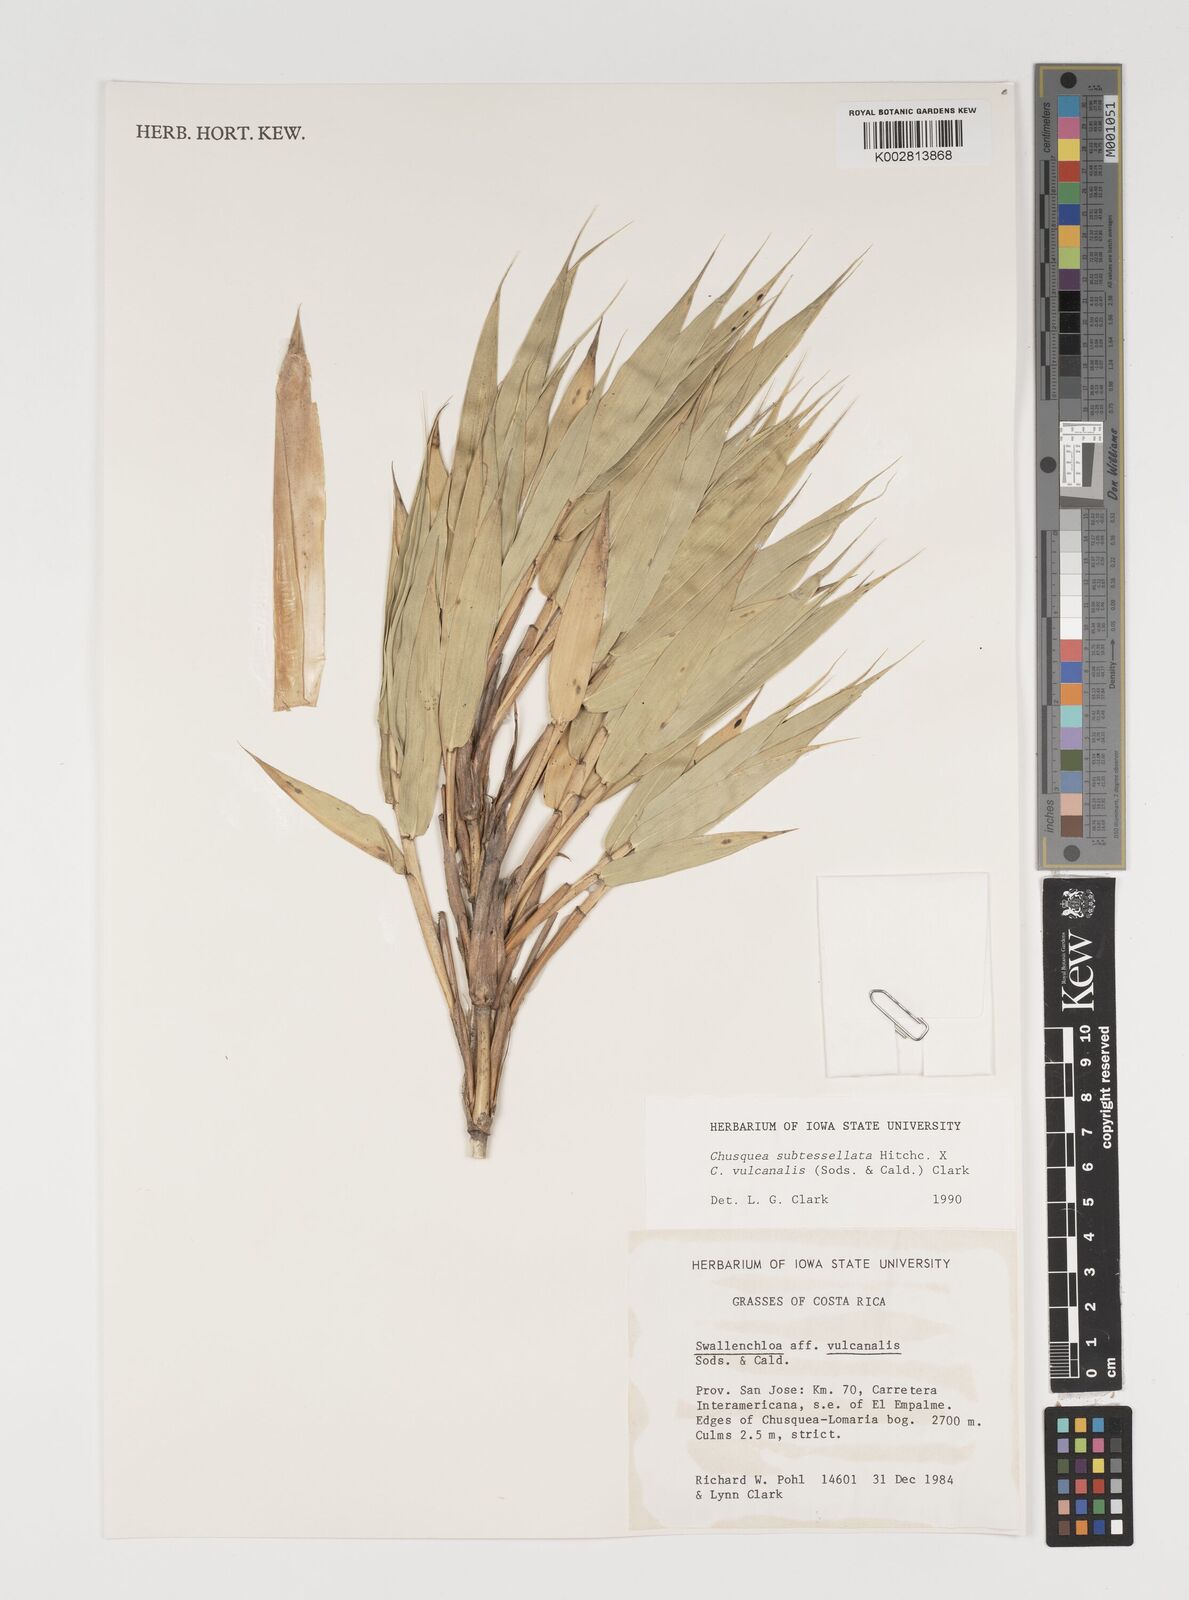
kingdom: Plantae
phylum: Tracheophyta
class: Liliopsida
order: Poales
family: Poaceae
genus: Chusquea
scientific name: Chusquea subtessellata
